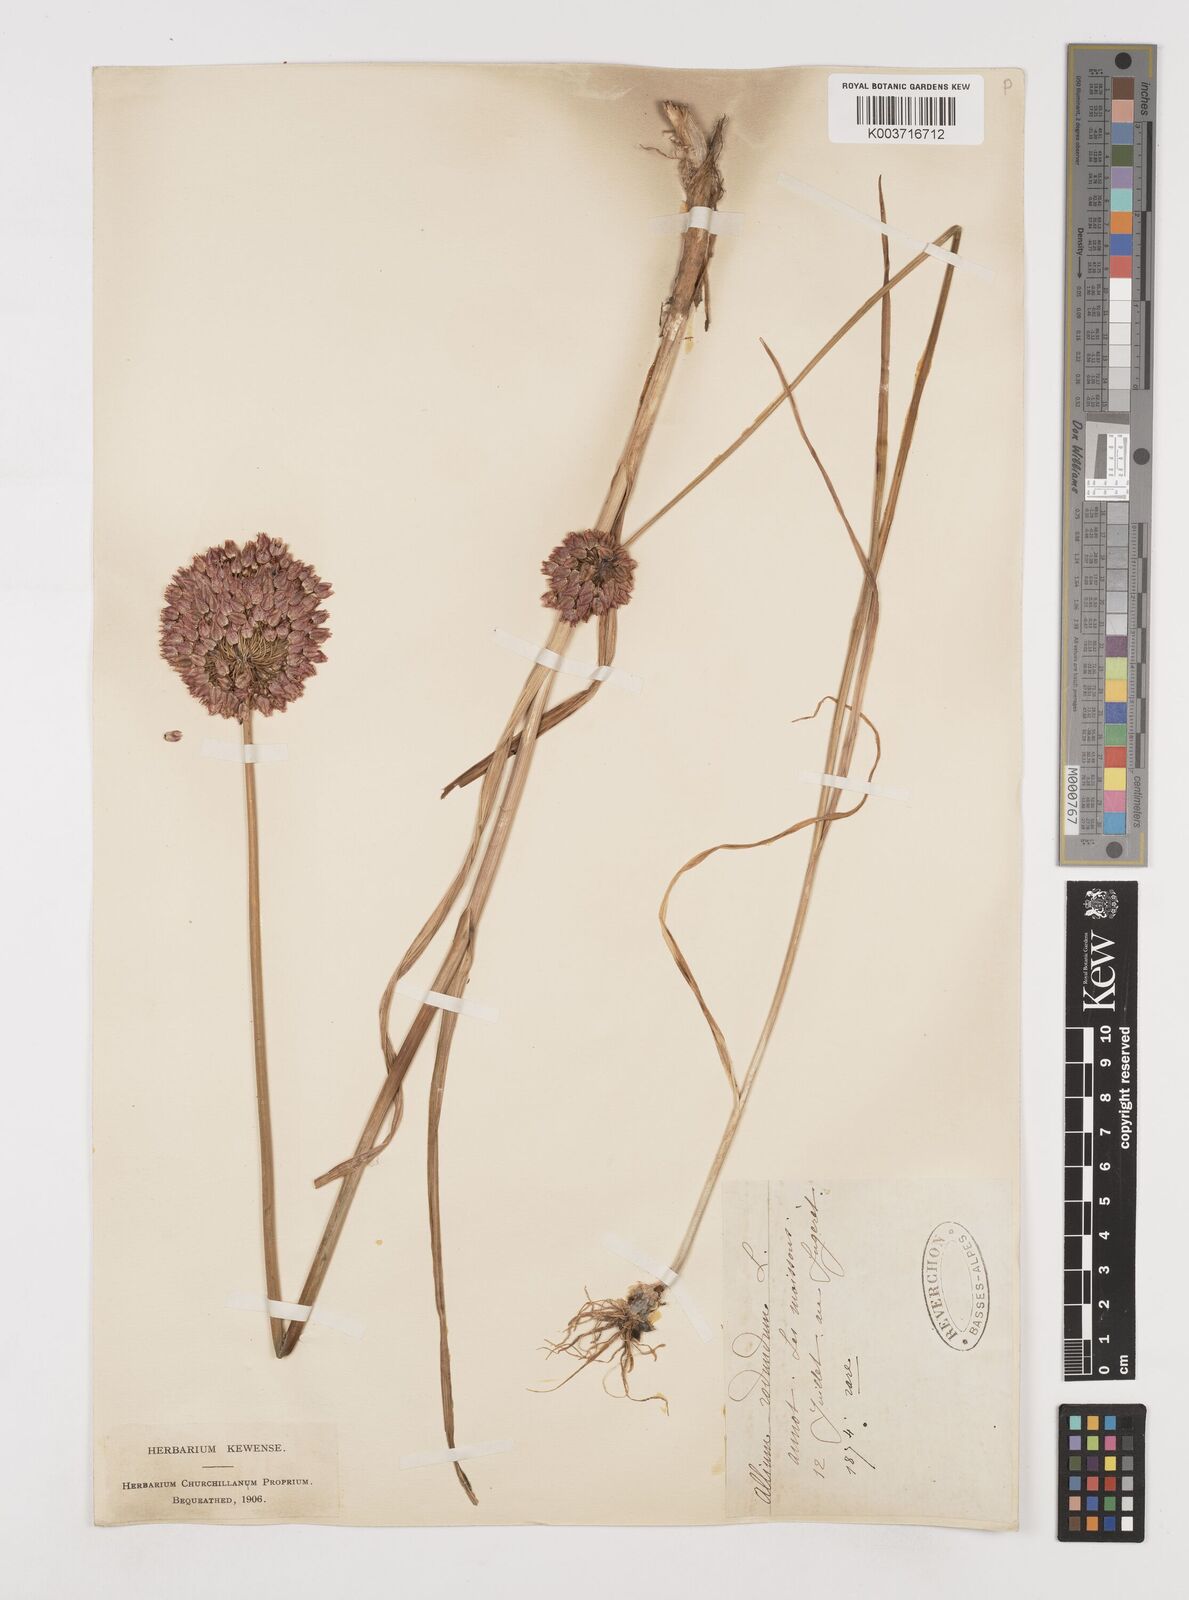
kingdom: Plantae
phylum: Tracheophyta
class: Liliopsida
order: Asparagales
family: Amaryllidaceae
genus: Allium
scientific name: Allium rotundum
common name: Sand leek
